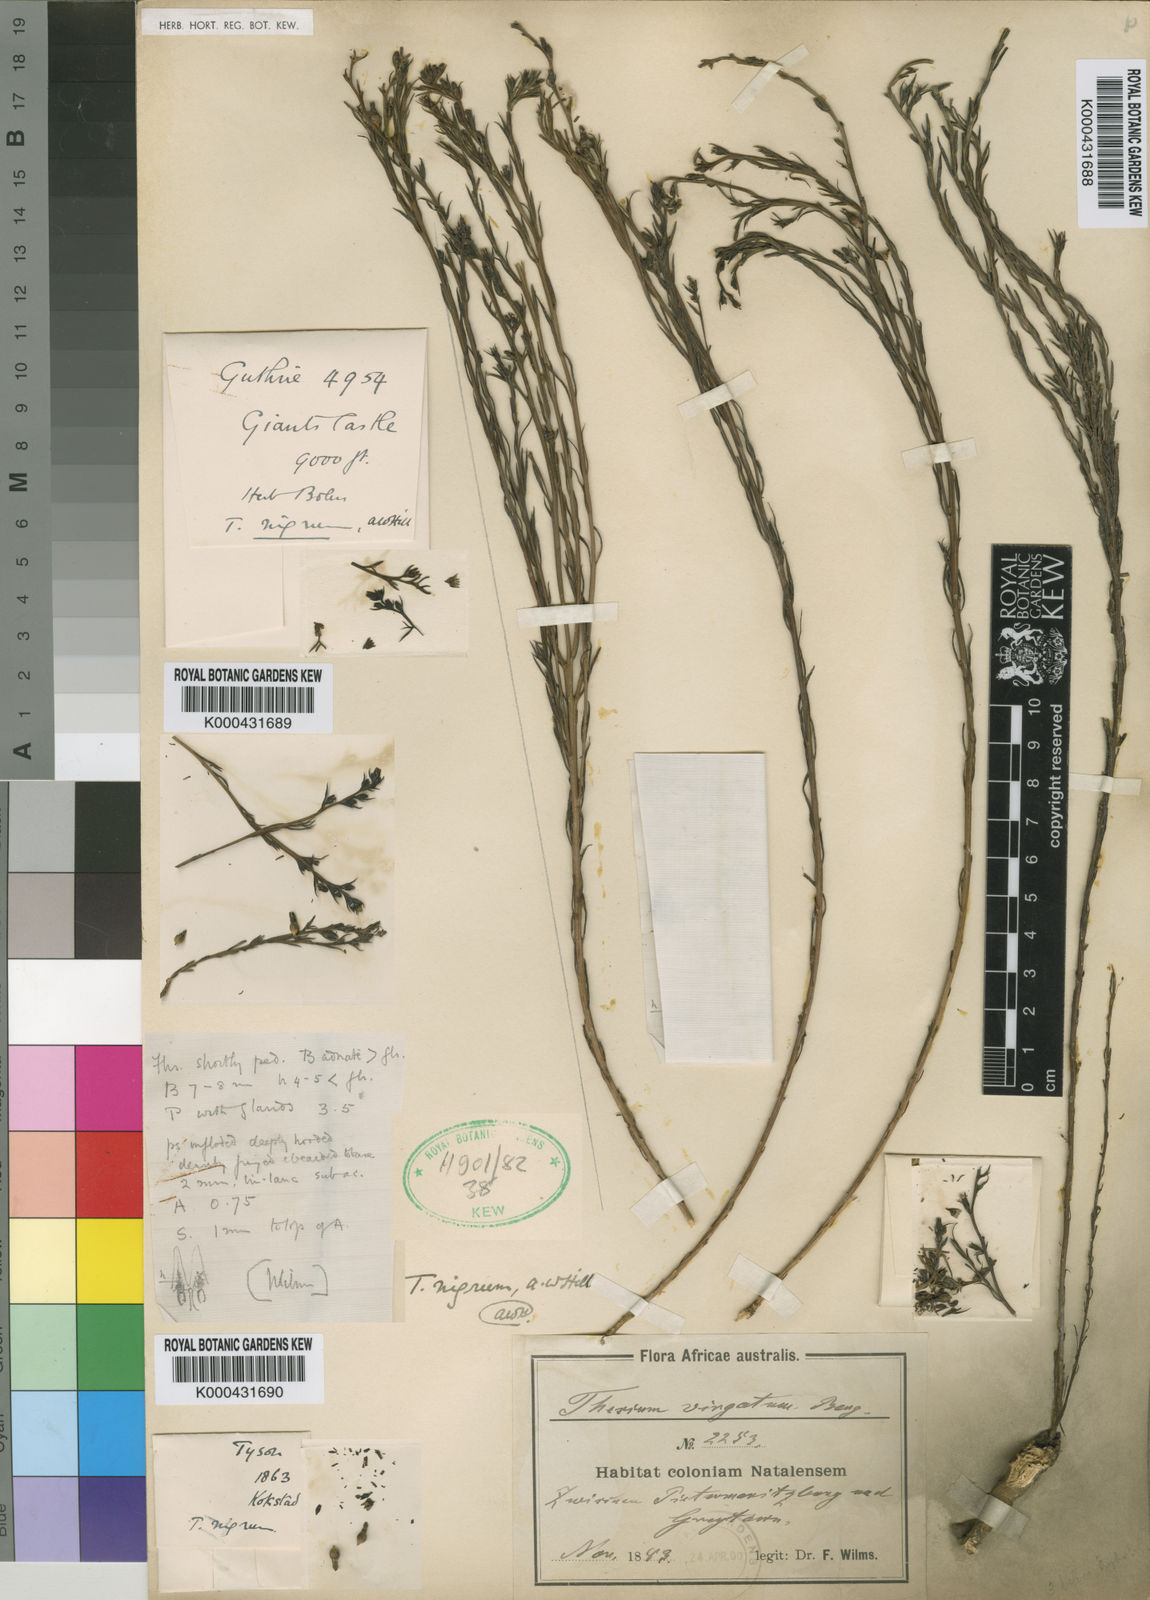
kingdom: Plantae
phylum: Tracheophyta
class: Magnoliopsida
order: Santalales
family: Thesiaceae
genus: Thesium
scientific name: Thesium nigrum
